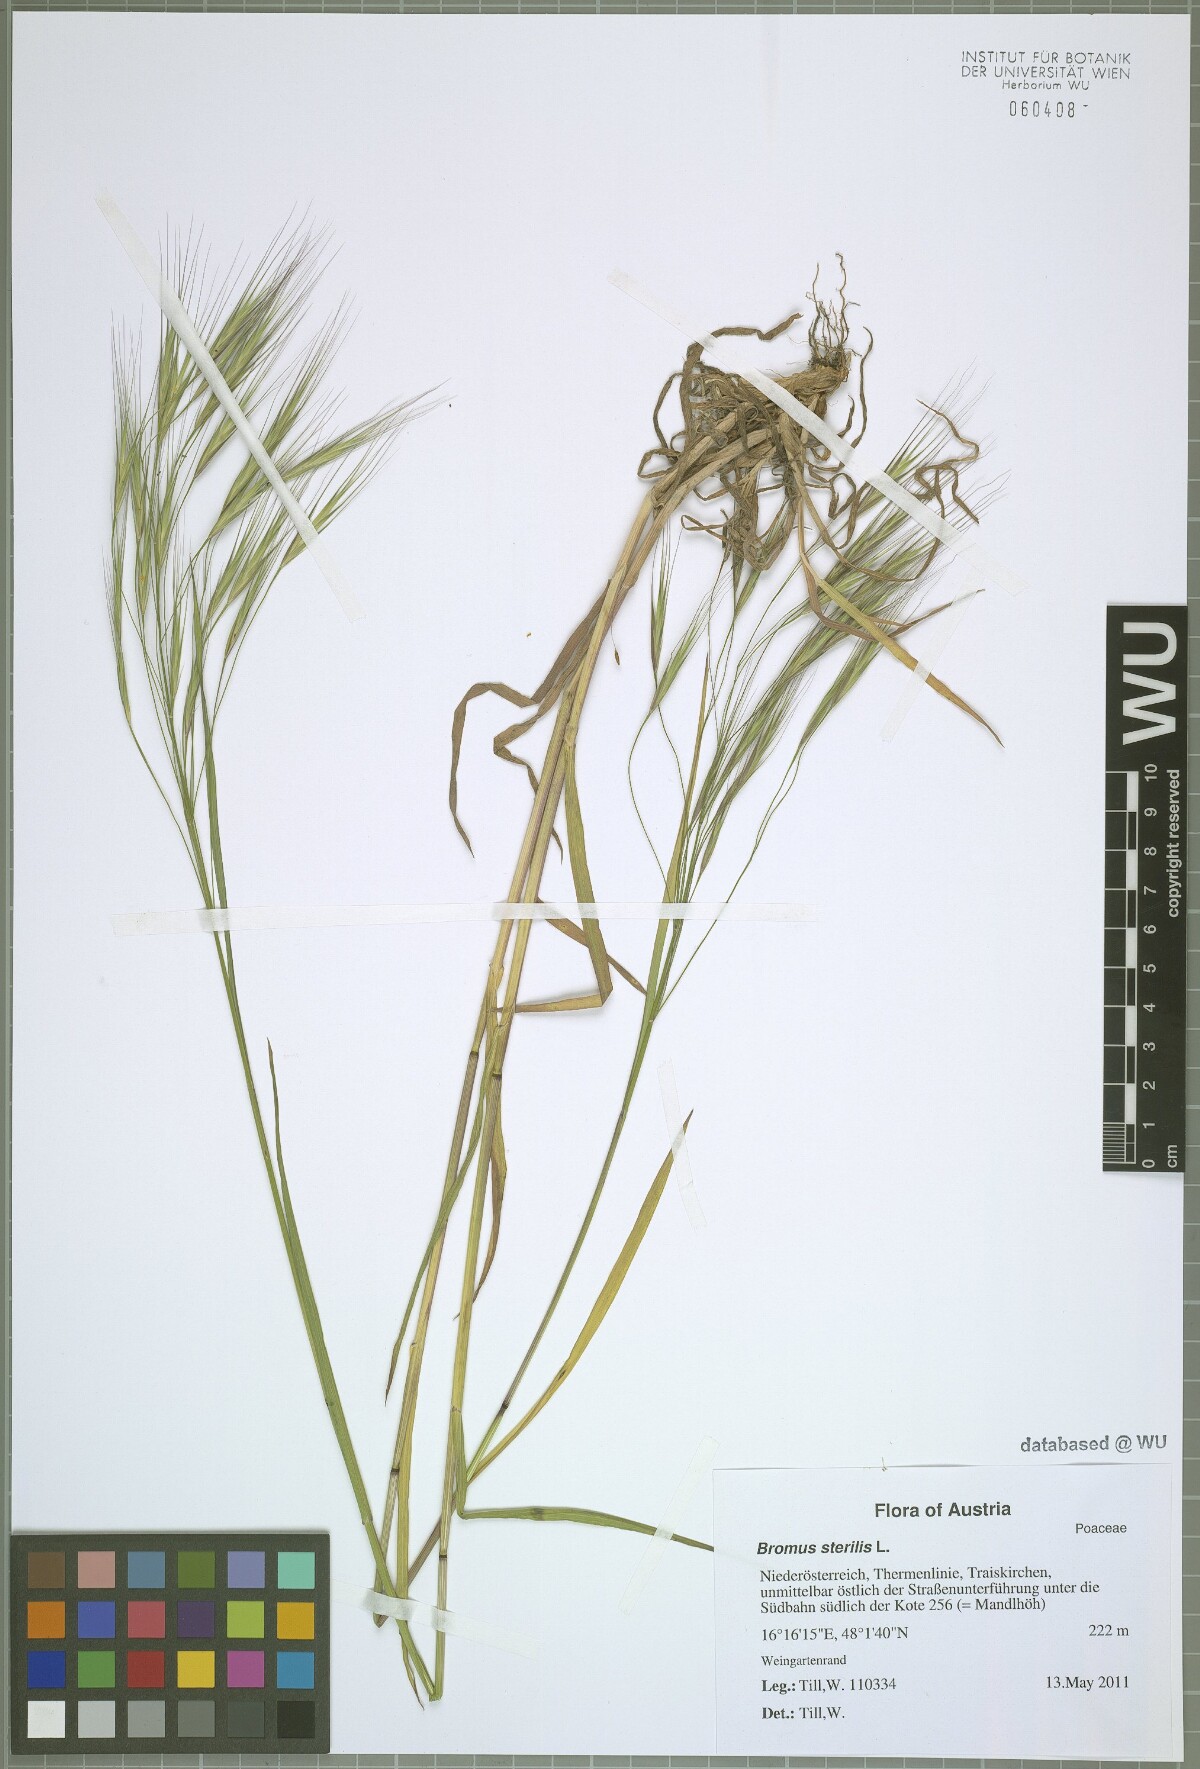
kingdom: Plantae
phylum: Tracheophyta
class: Liliopsida
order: Poales
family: Poaceae
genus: Bromus
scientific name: Bromus sterilis
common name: Poverty brome
